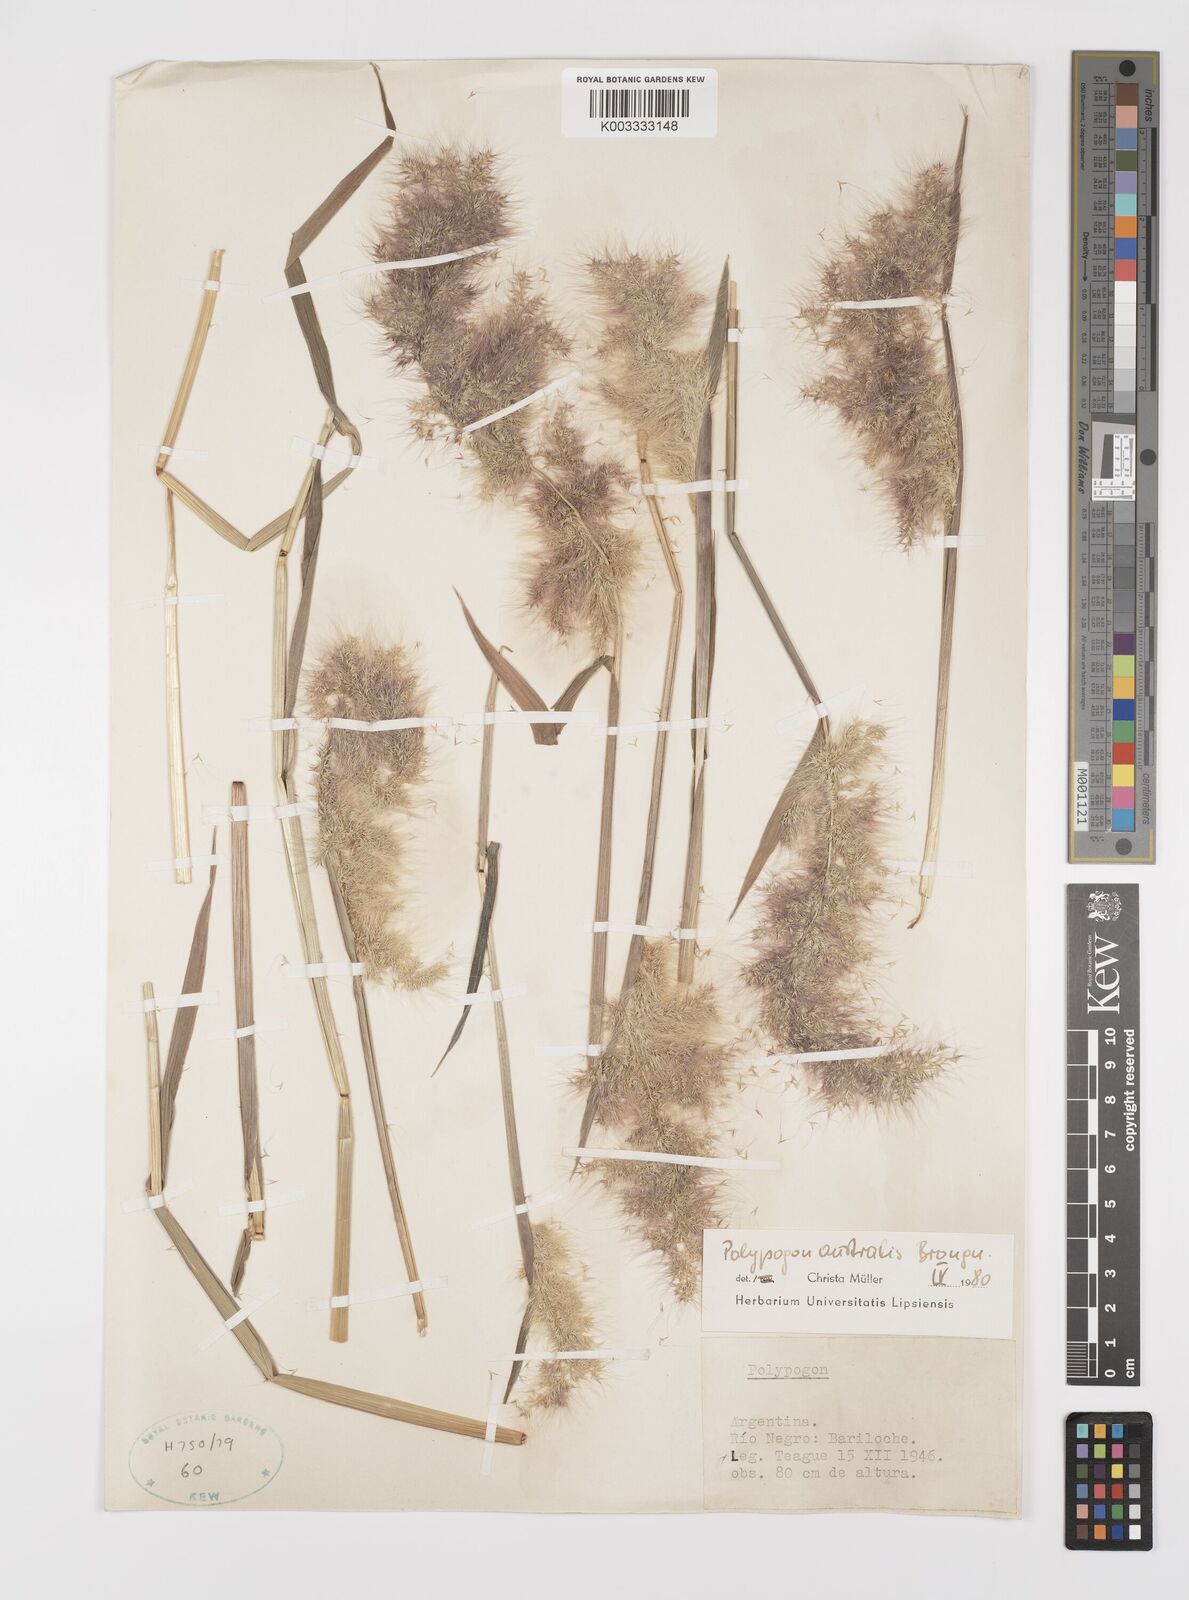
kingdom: Plantae
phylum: Tracheophyta
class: Liliopsida
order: Poales
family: Poaceae
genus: Polypogon
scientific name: Polypogon australis
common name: Chilean rabbitsfoot grass
